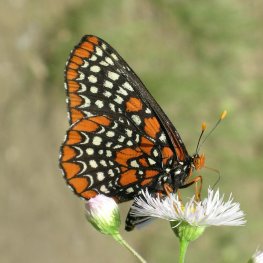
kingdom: Animalia
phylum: Arthropoda
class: Insecta
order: Lepidoptera
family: Nymphalidae
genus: Euphydryas
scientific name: Euphydryas phaeton
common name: Baltimore Checkerspot
